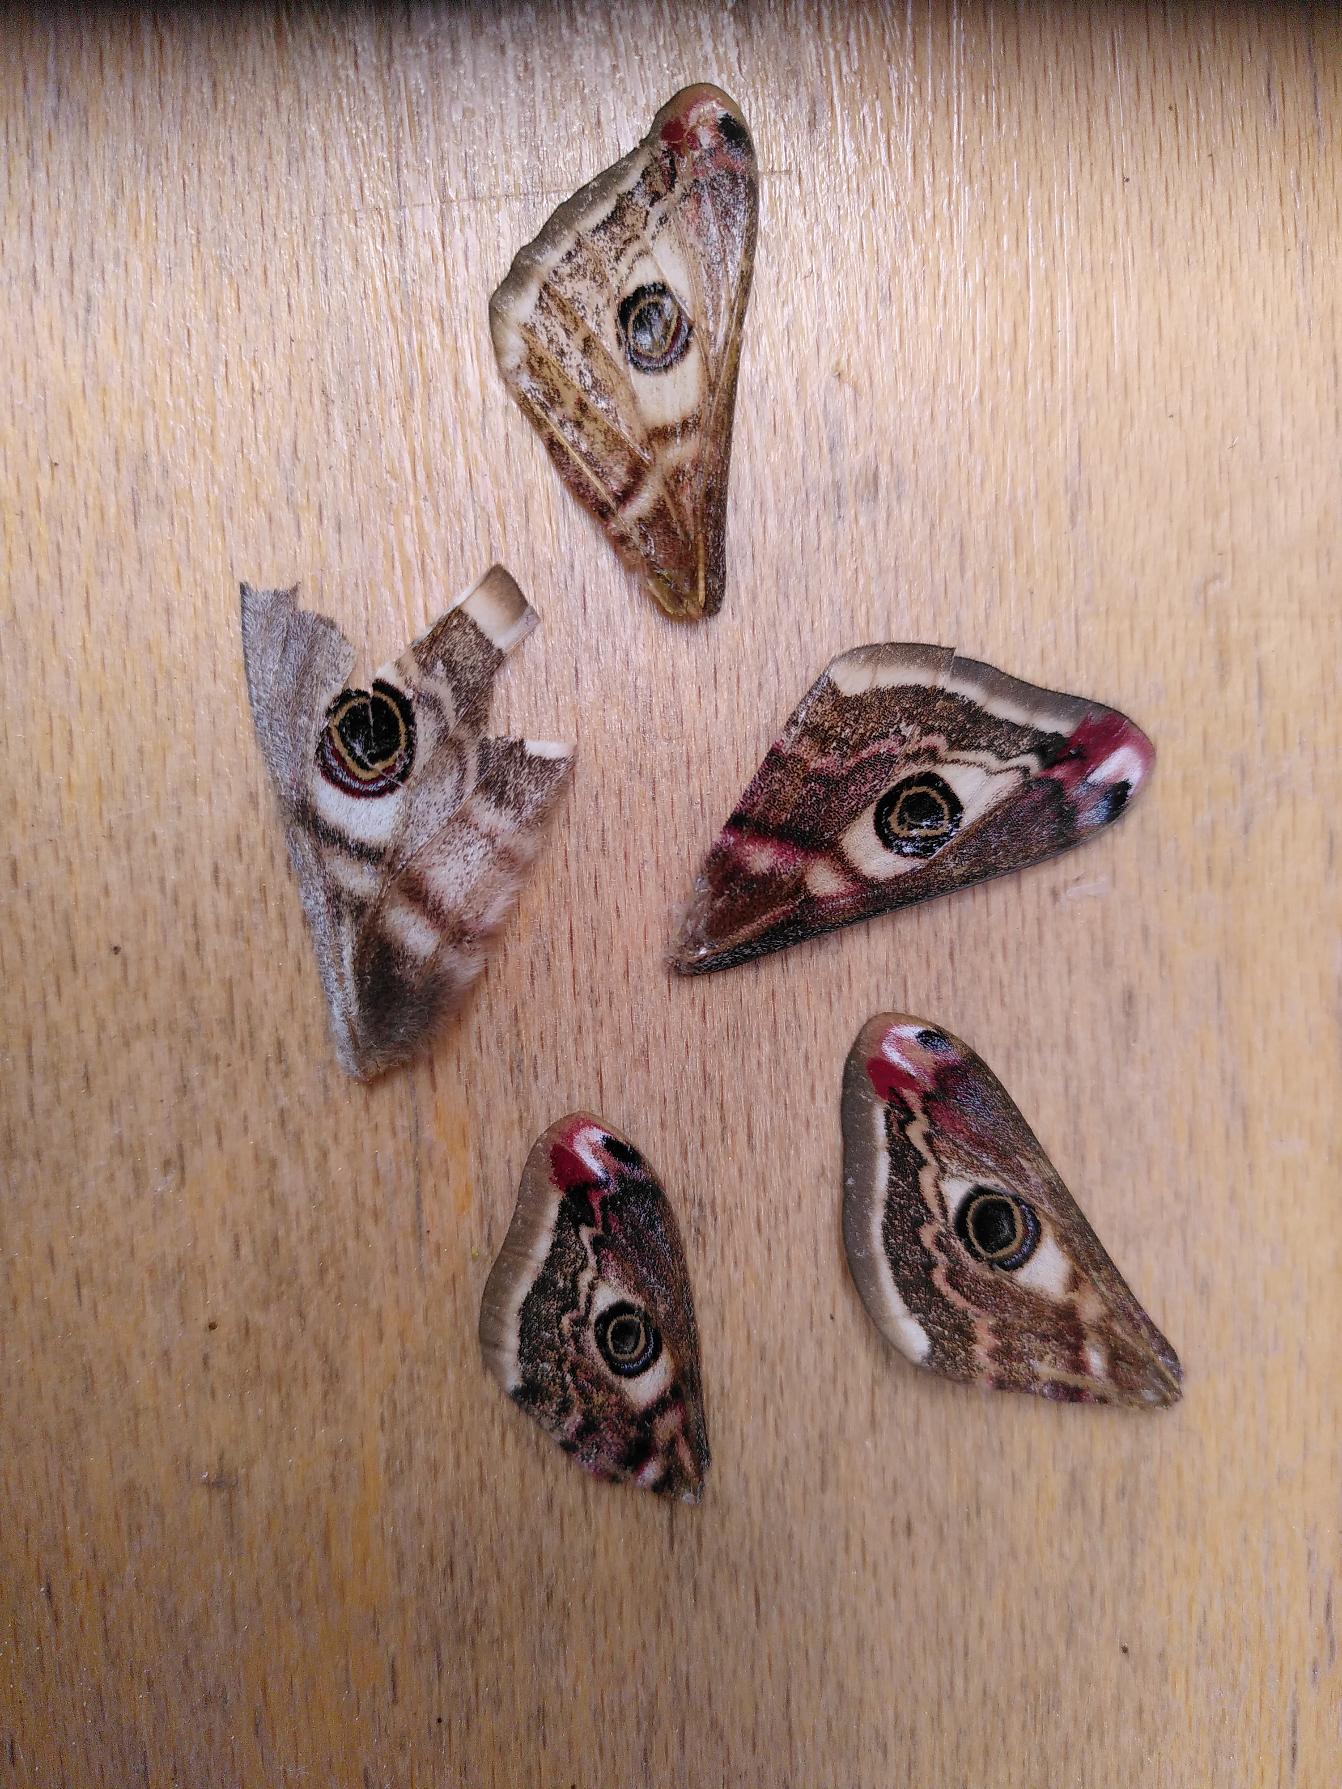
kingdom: Animalia
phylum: Arthropoda
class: Insecta
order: Lepidoptera
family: Saturniidae
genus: Saturnia
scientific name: Saturnia pavonia
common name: Lille natpåfugleøje
